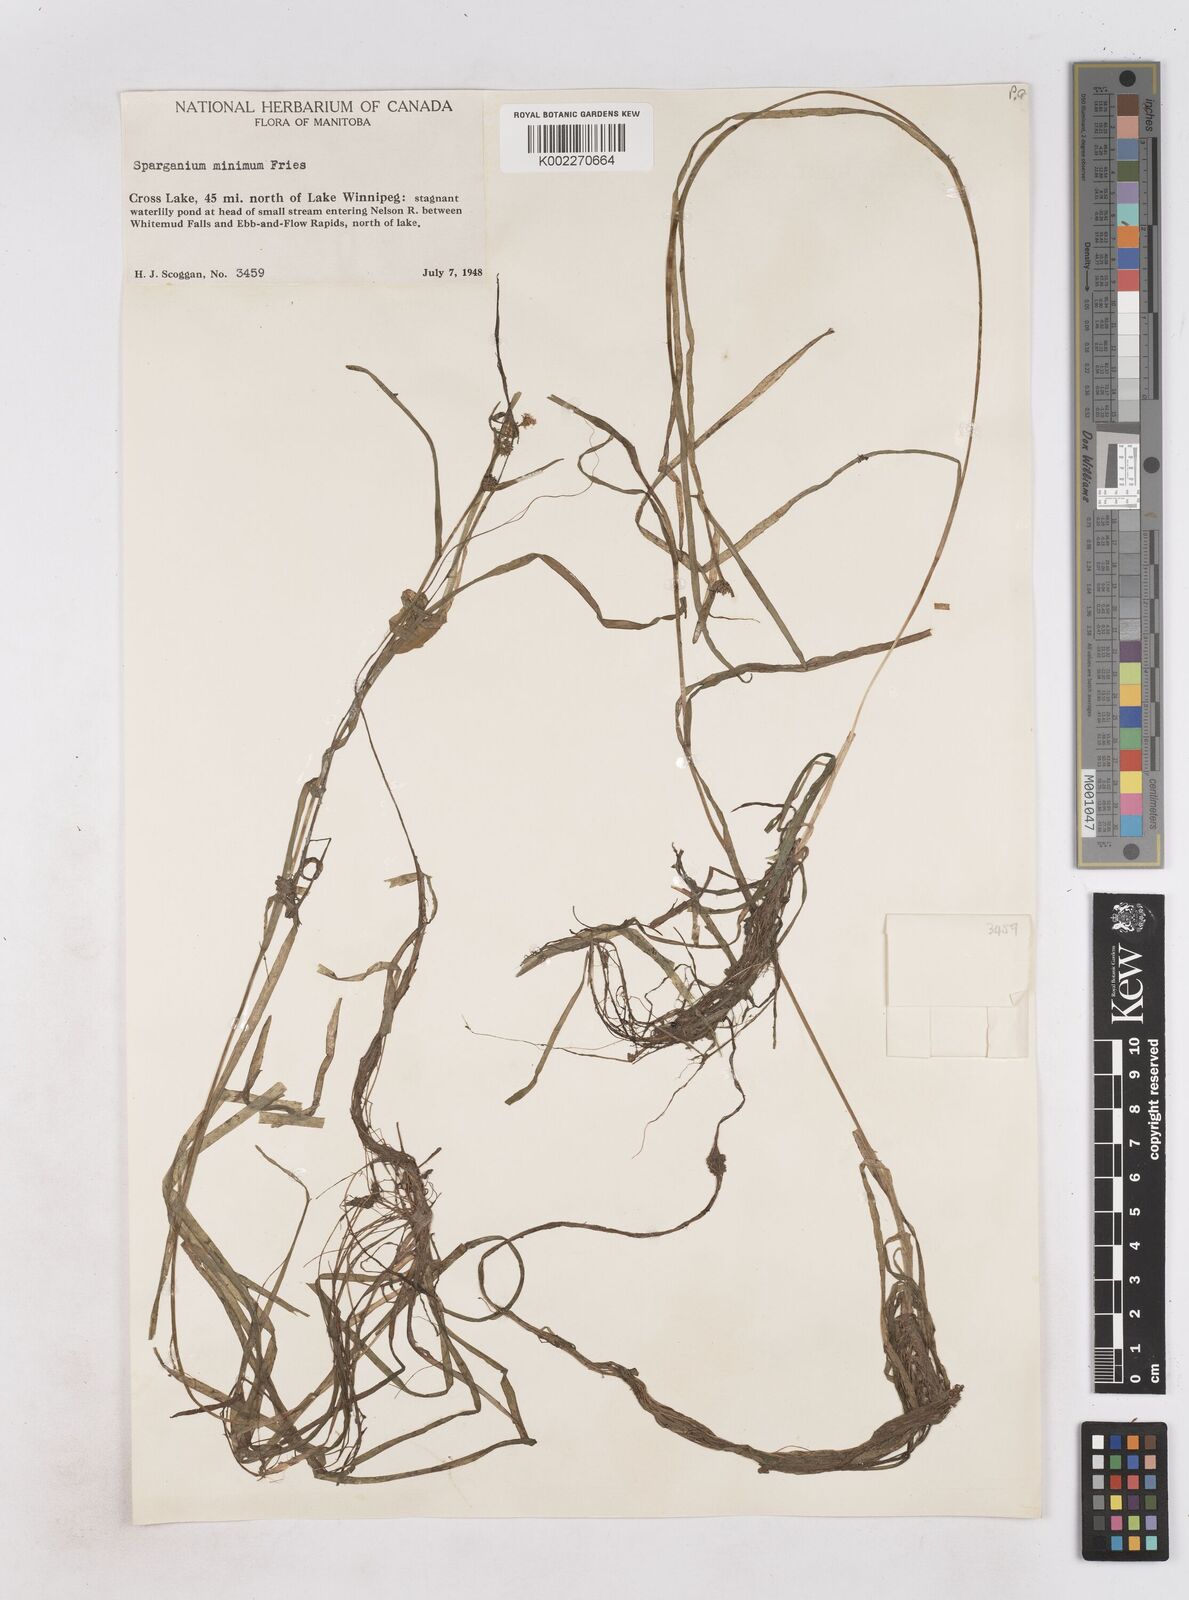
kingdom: Plantae
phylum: Tracheophyta
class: Liliopsida
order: Poales
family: Typhaceae
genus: Sparganium
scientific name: Sparganium natans
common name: Least bur-reed
